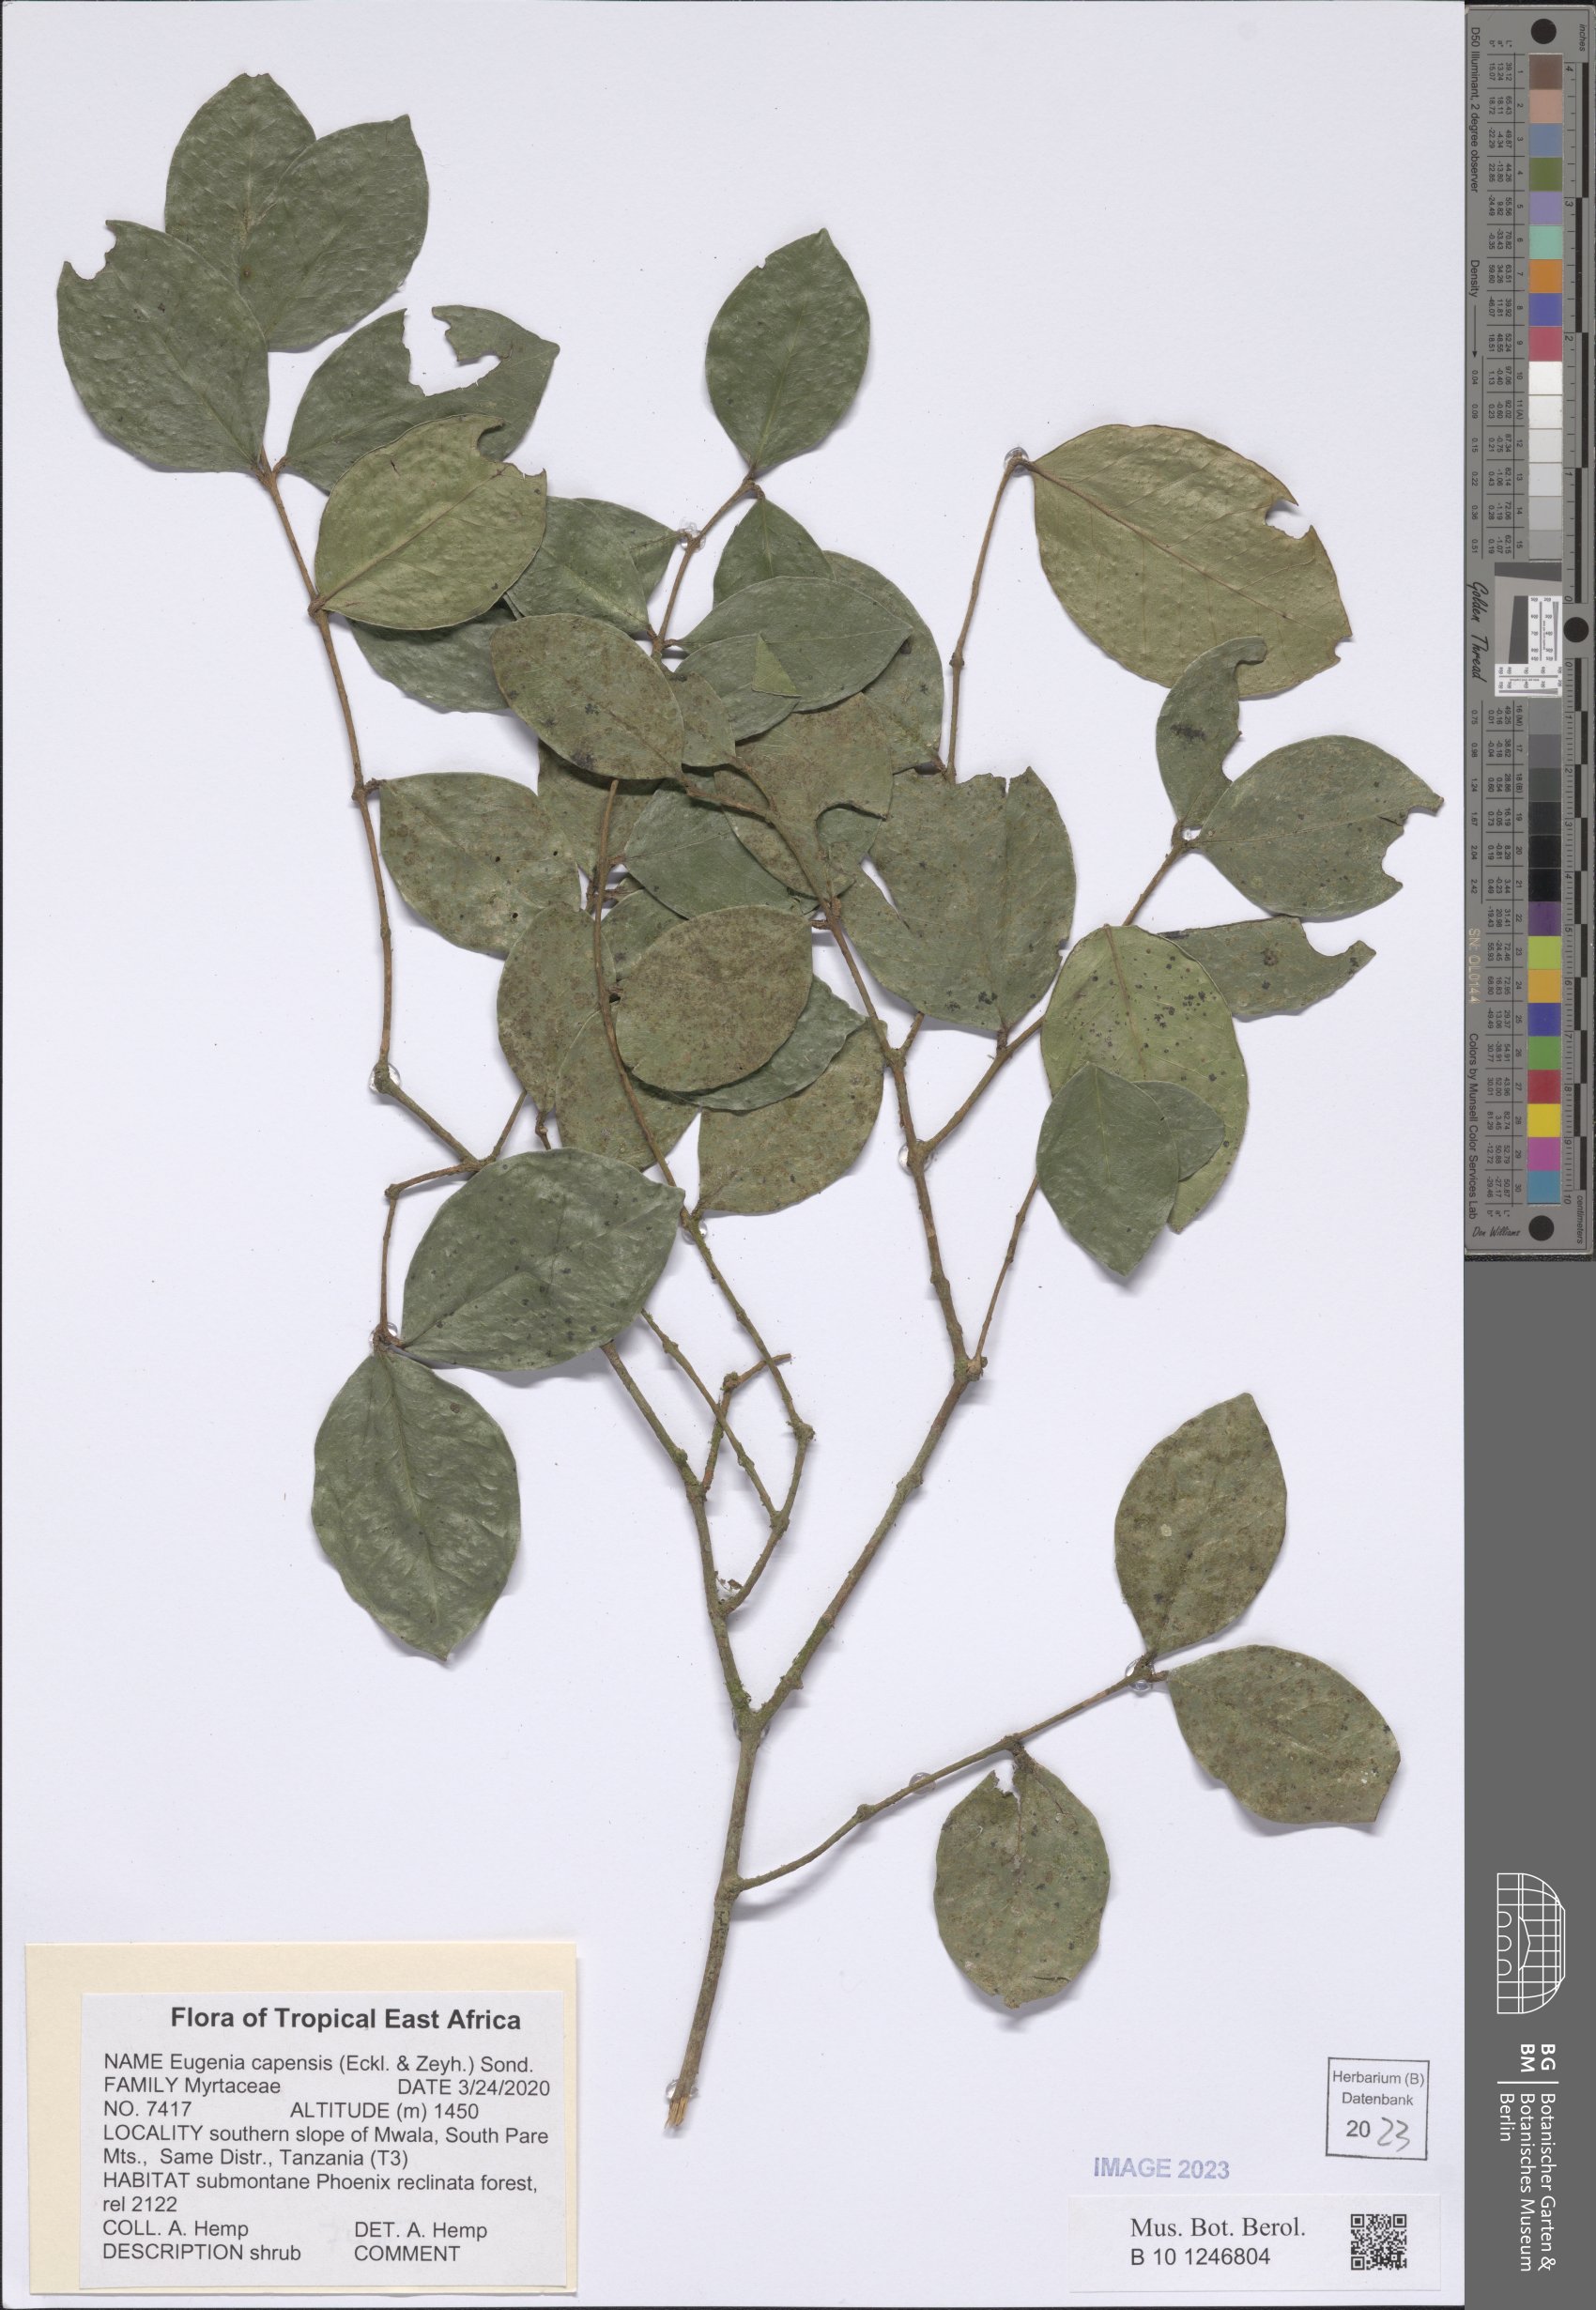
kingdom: Plantae
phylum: Tracheophyta
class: Magnoliopsida
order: Myrtales
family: Myrtaceae
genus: Eugenia
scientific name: Eugenia capensis
